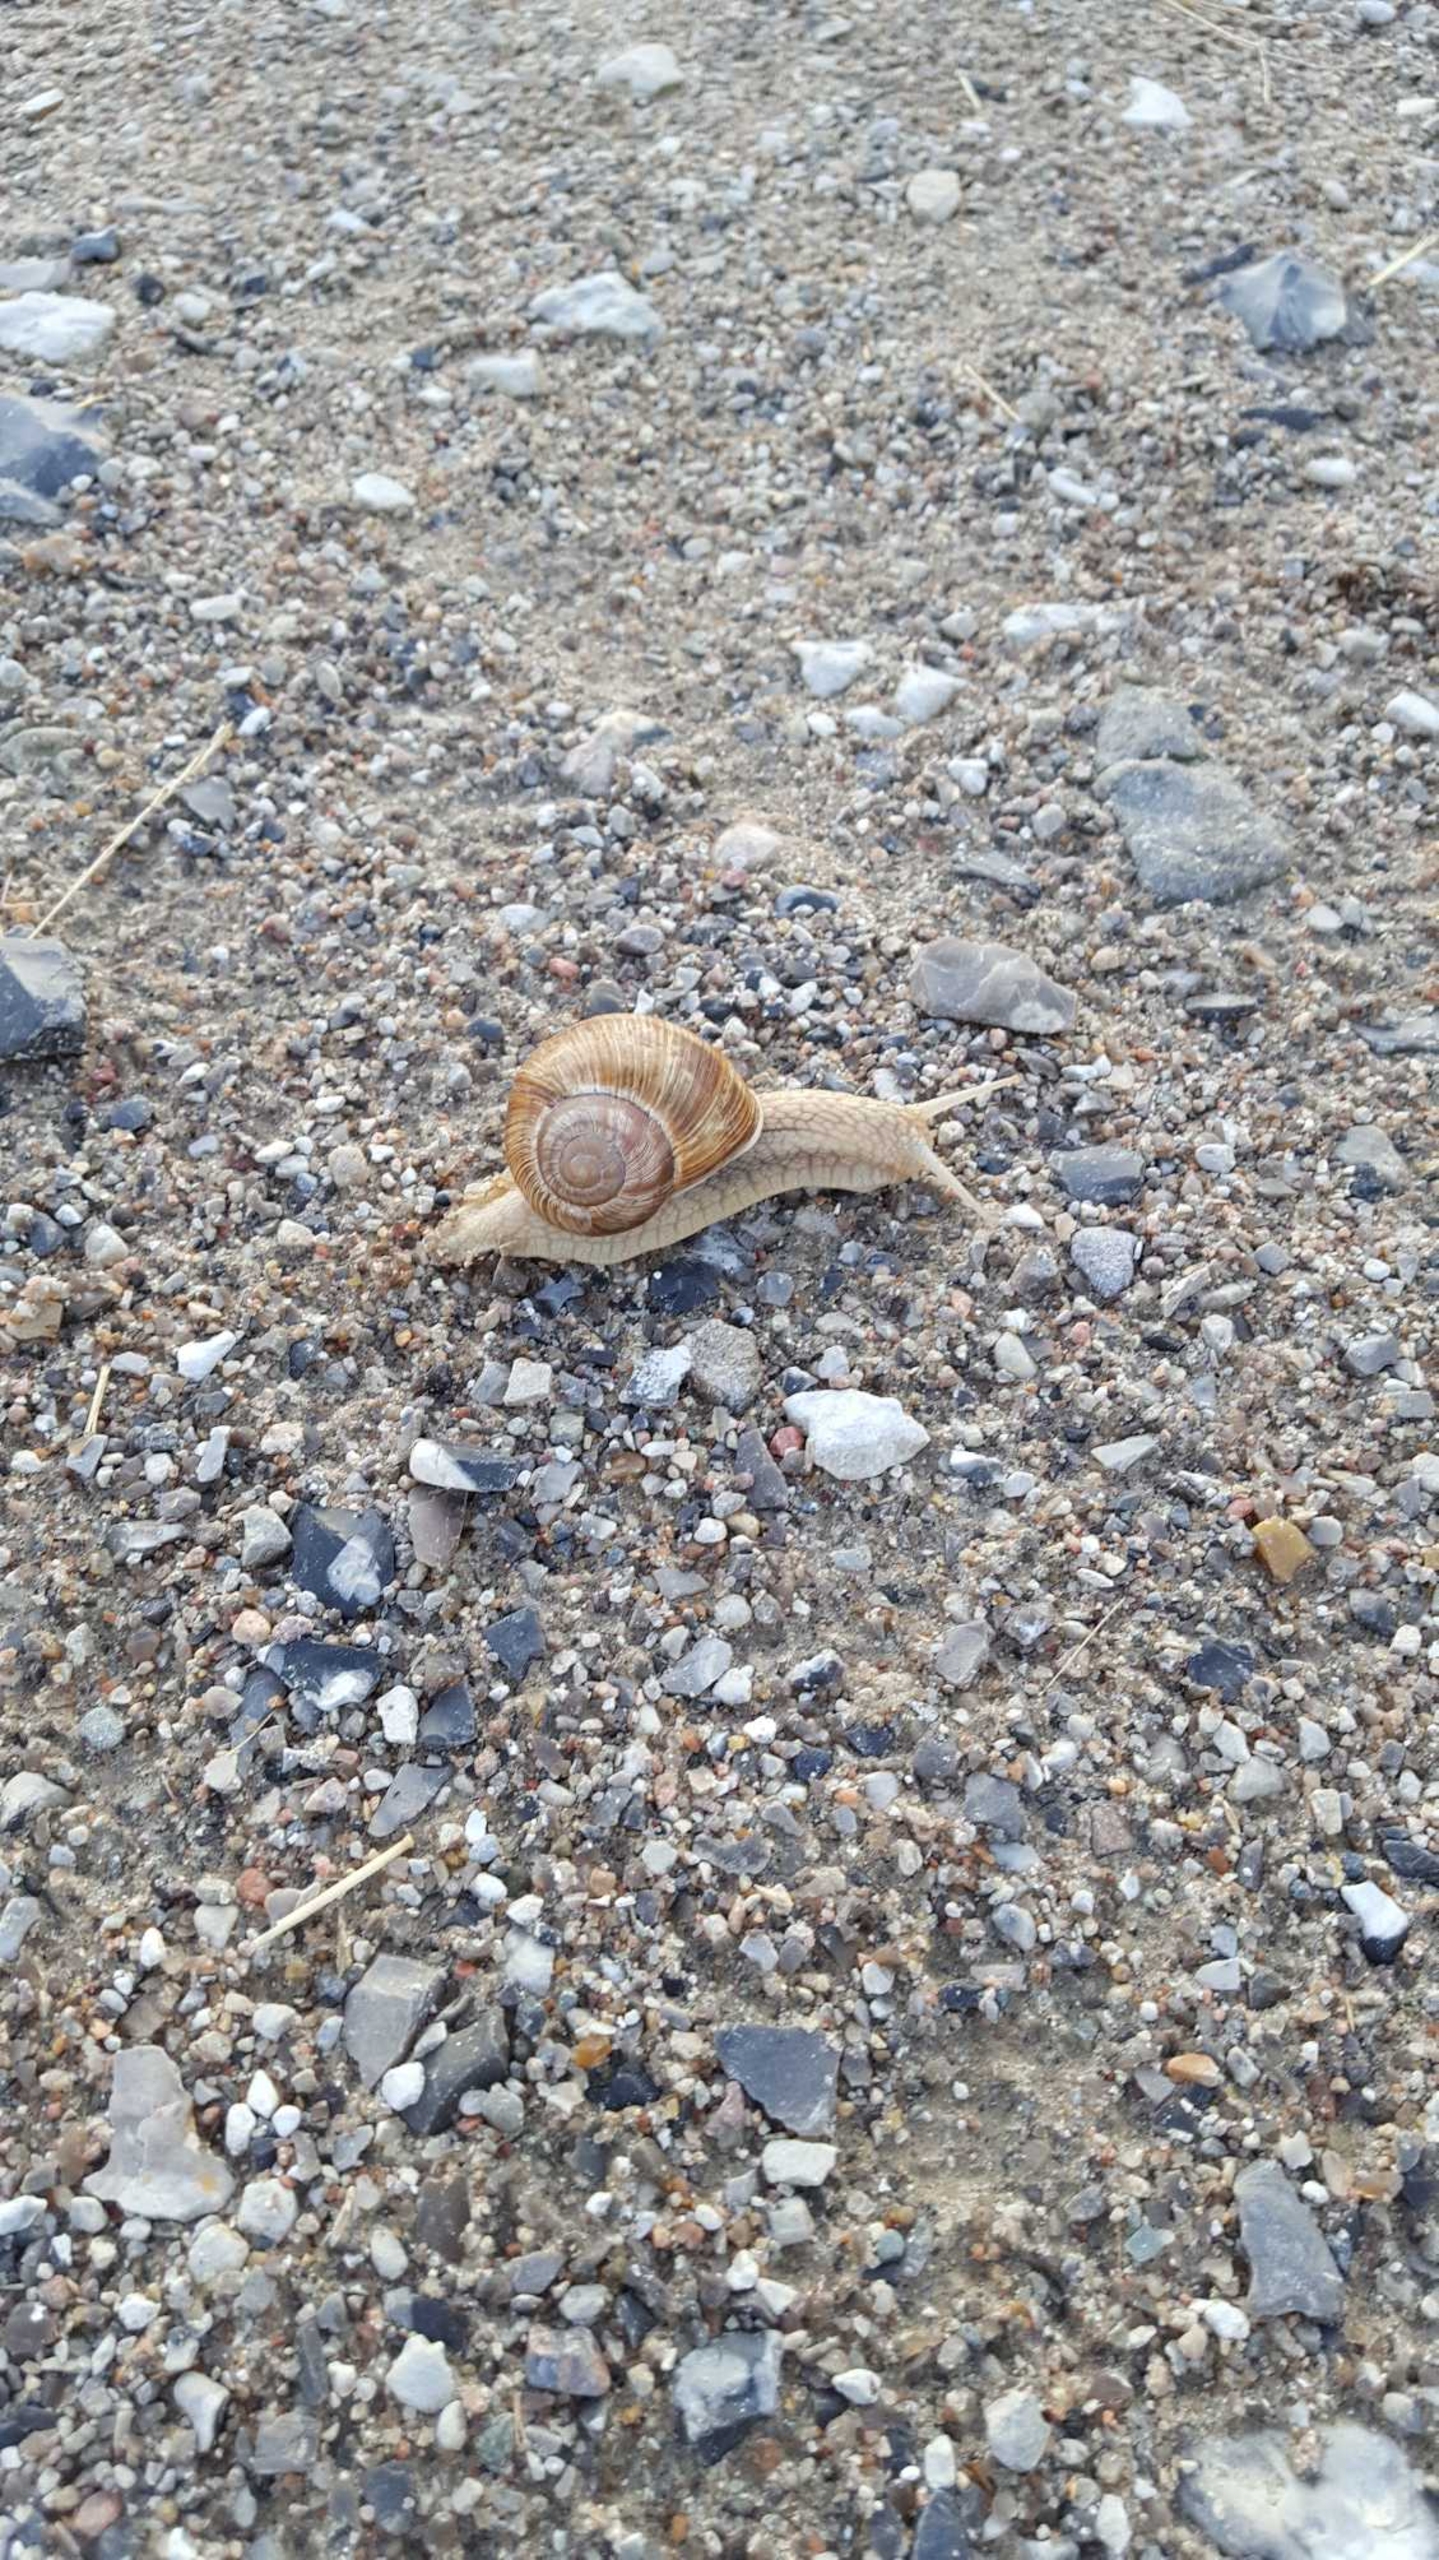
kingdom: Animalia
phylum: Mollusca
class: Gastropoda
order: Stylommatophora
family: Helicidae
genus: Helix
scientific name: Helix pomatia
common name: Vinbjergsnegl
